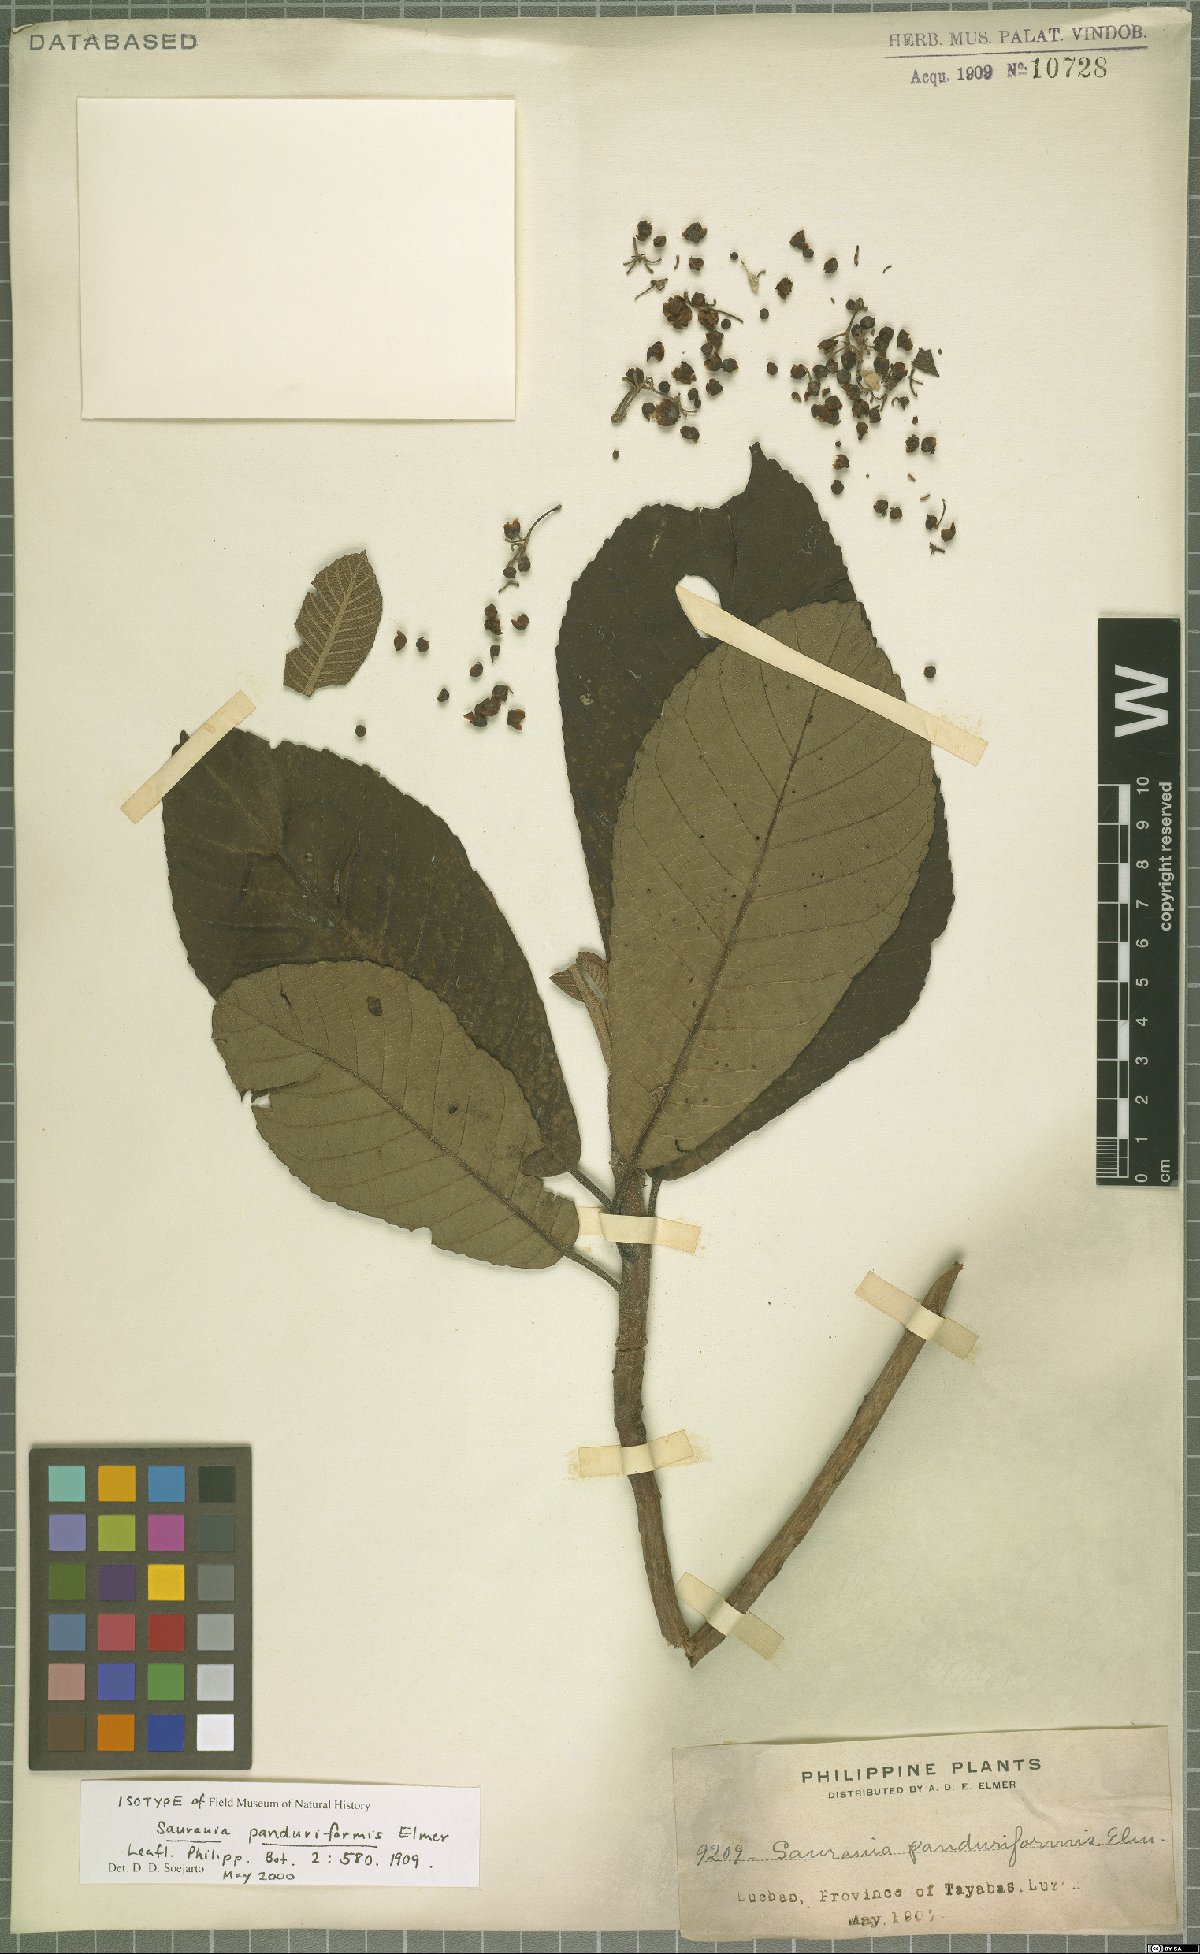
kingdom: Plantae
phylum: Tracheophyta
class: Magnoliopsida
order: Ericales
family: Actinidiaceae
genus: Saurauia
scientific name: Saurauia panduriformis
